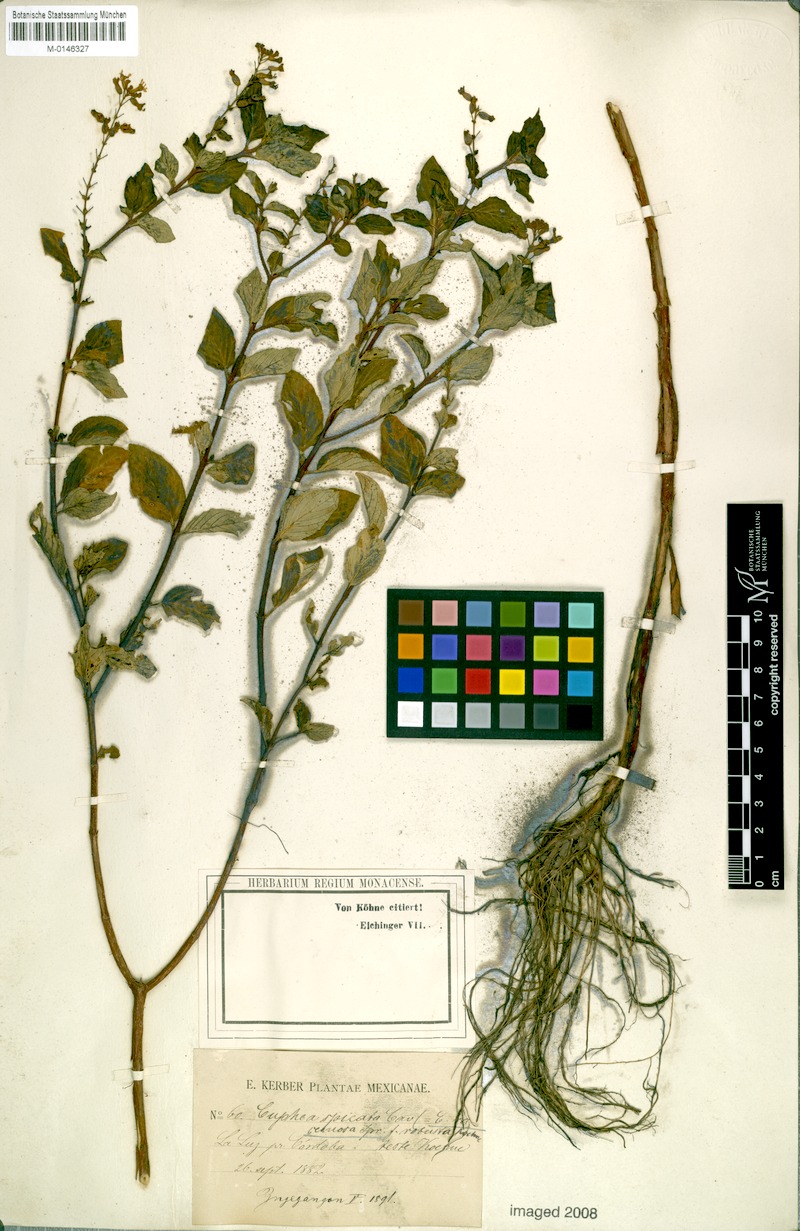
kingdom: Plantae
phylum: Tracheophyta
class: Magnoliopsida
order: Myrtales
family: Lythraceae
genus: Cuphea
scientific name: Cuphea racemosa
